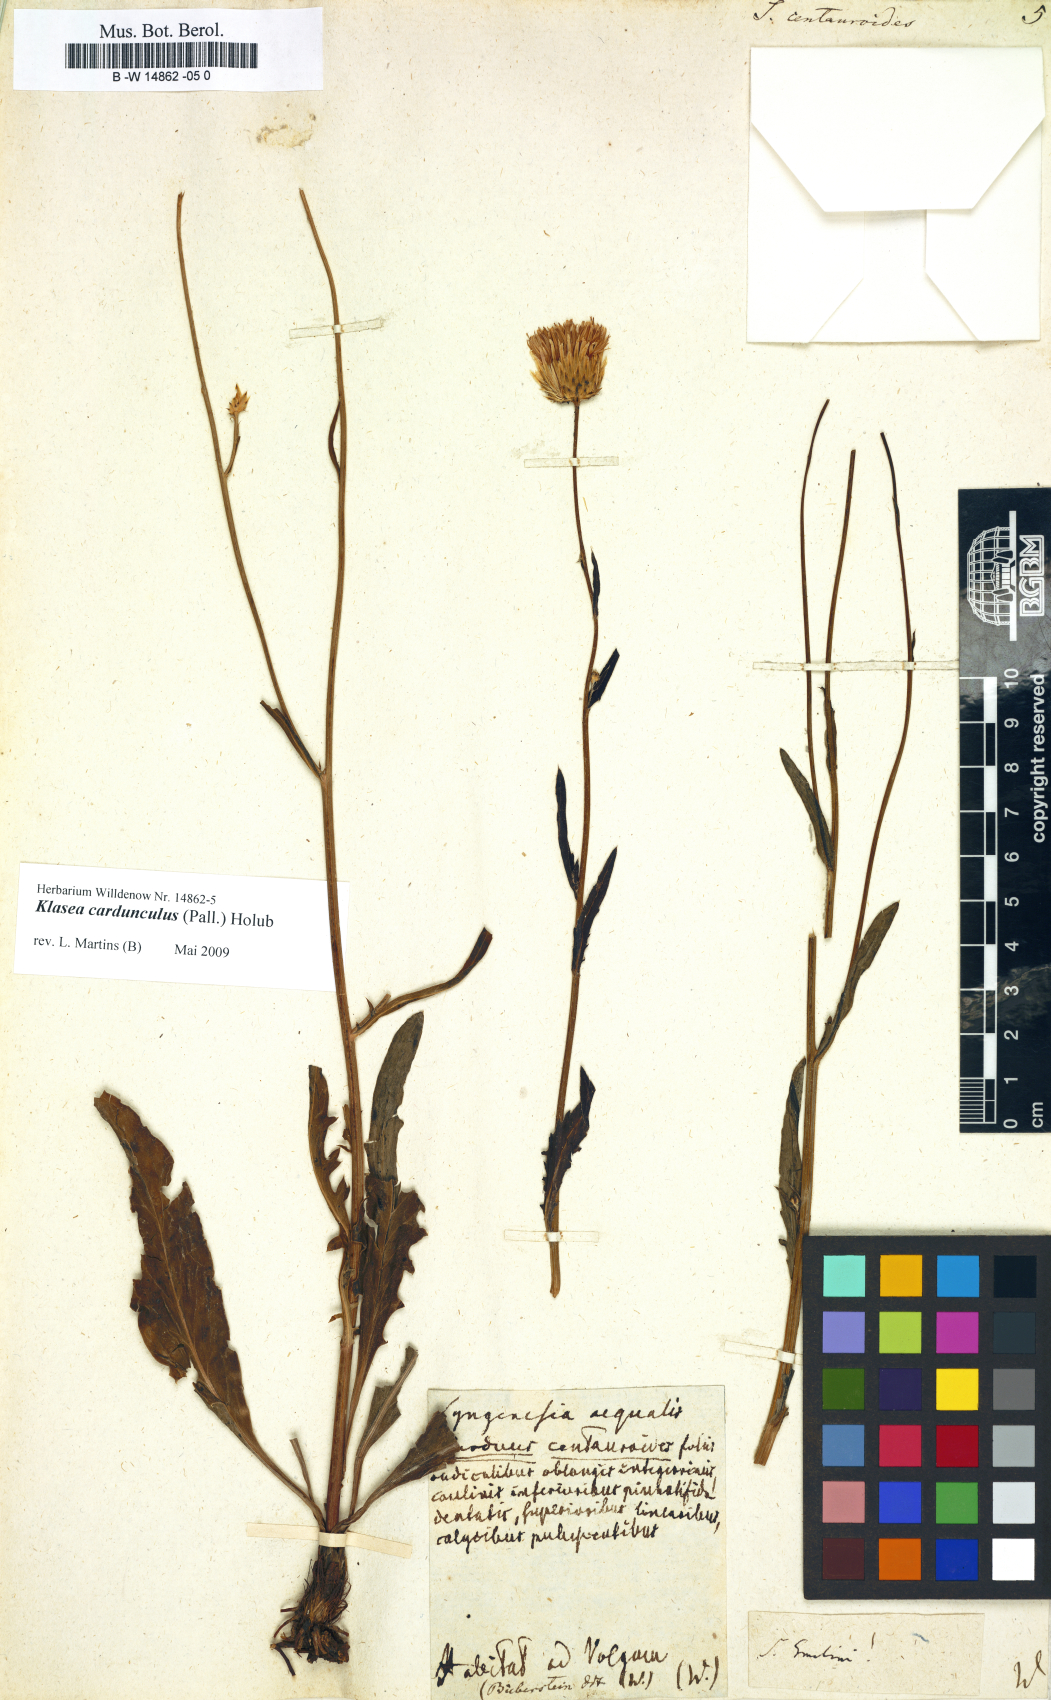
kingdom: Plantae
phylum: Tracheophyta
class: Magnoliopsida
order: Asterales
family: Asteraceae
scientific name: Asteraceae
